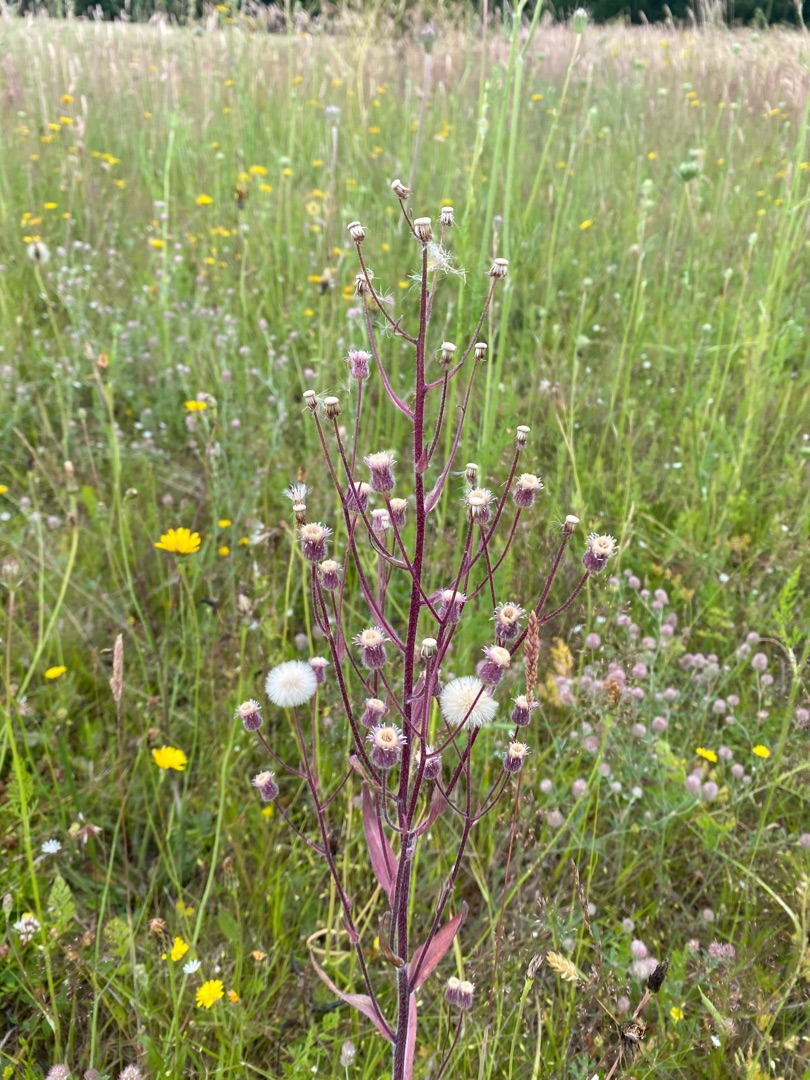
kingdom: Plantae
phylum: Tracheophyta
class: Magnoliopsida
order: Asterales
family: Asteraceae
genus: Erigeron
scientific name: Erigeron acris
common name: Bitter bakkestjerne
